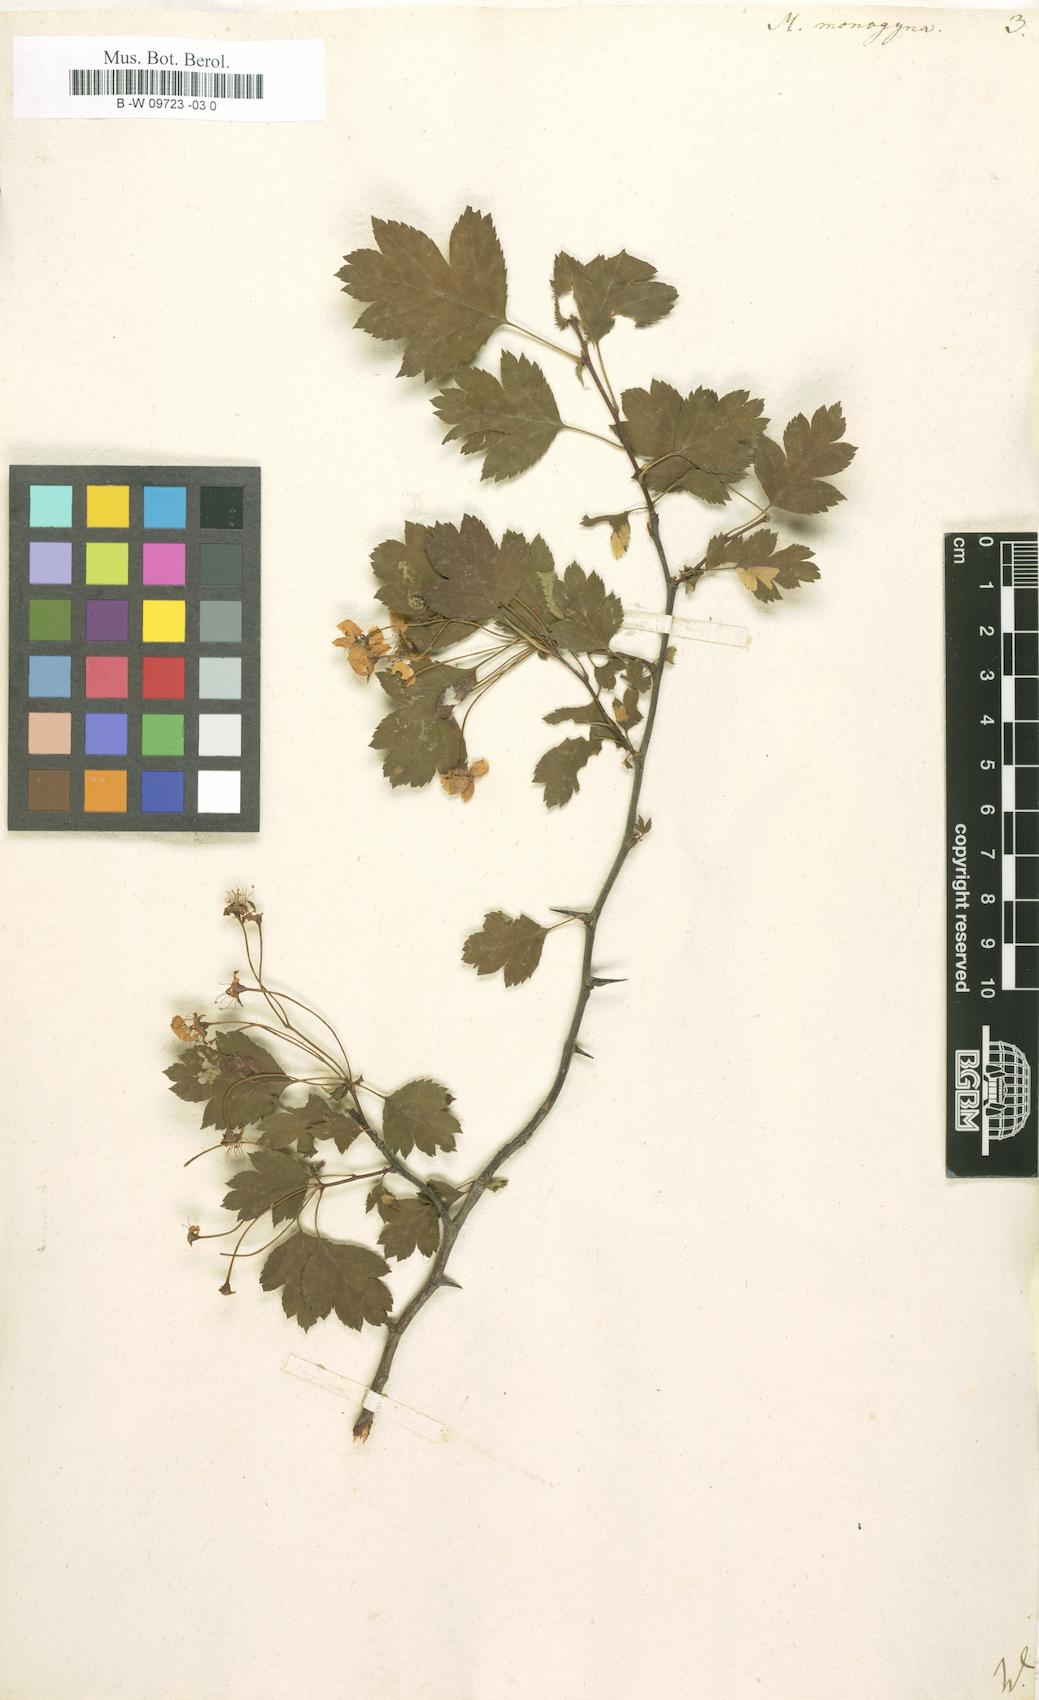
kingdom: Plantae
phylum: Tracheophyta
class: Magnoliopsida
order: Rosales
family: Rosaceae
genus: Crataegus
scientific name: Crataegus monogyna
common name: Hawthorn
